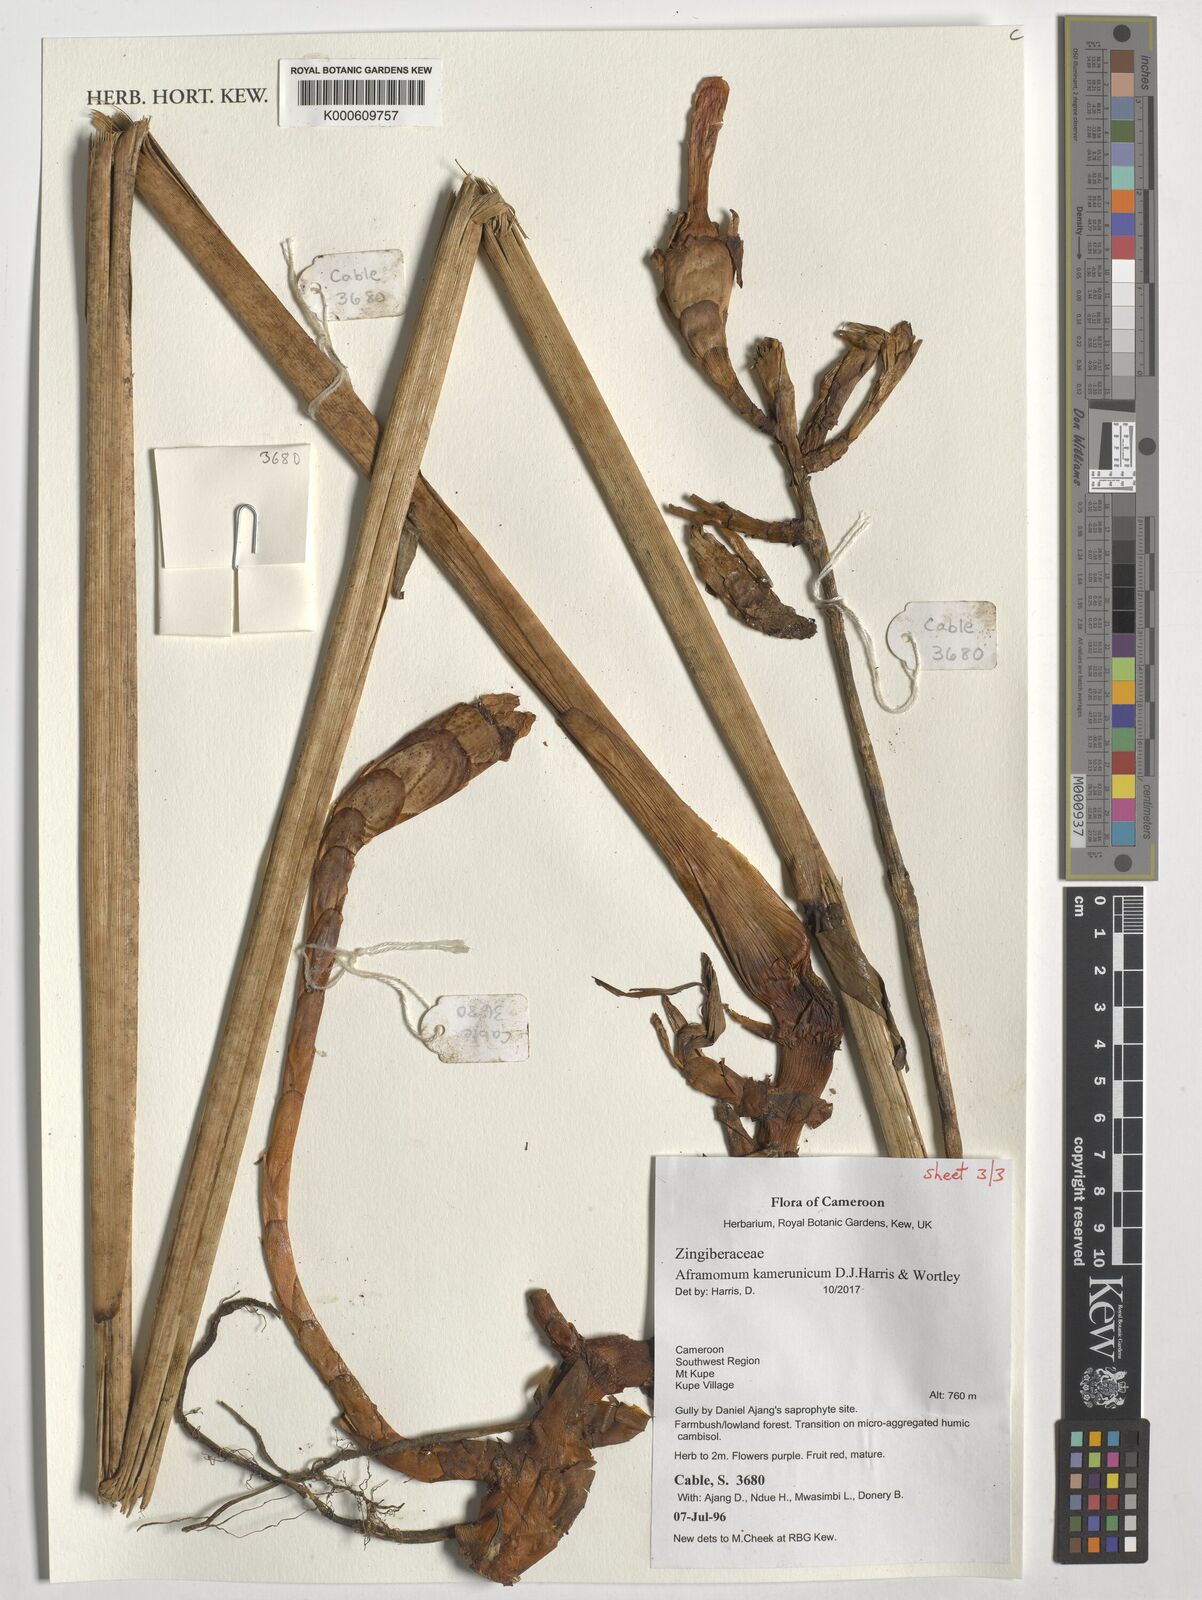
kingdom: Plantae
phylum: Tracheophyta
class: Liliopsida
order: Zingiberales
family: Zingiberaceae
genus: Aframomum
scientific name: Aframomum kamerunicum
